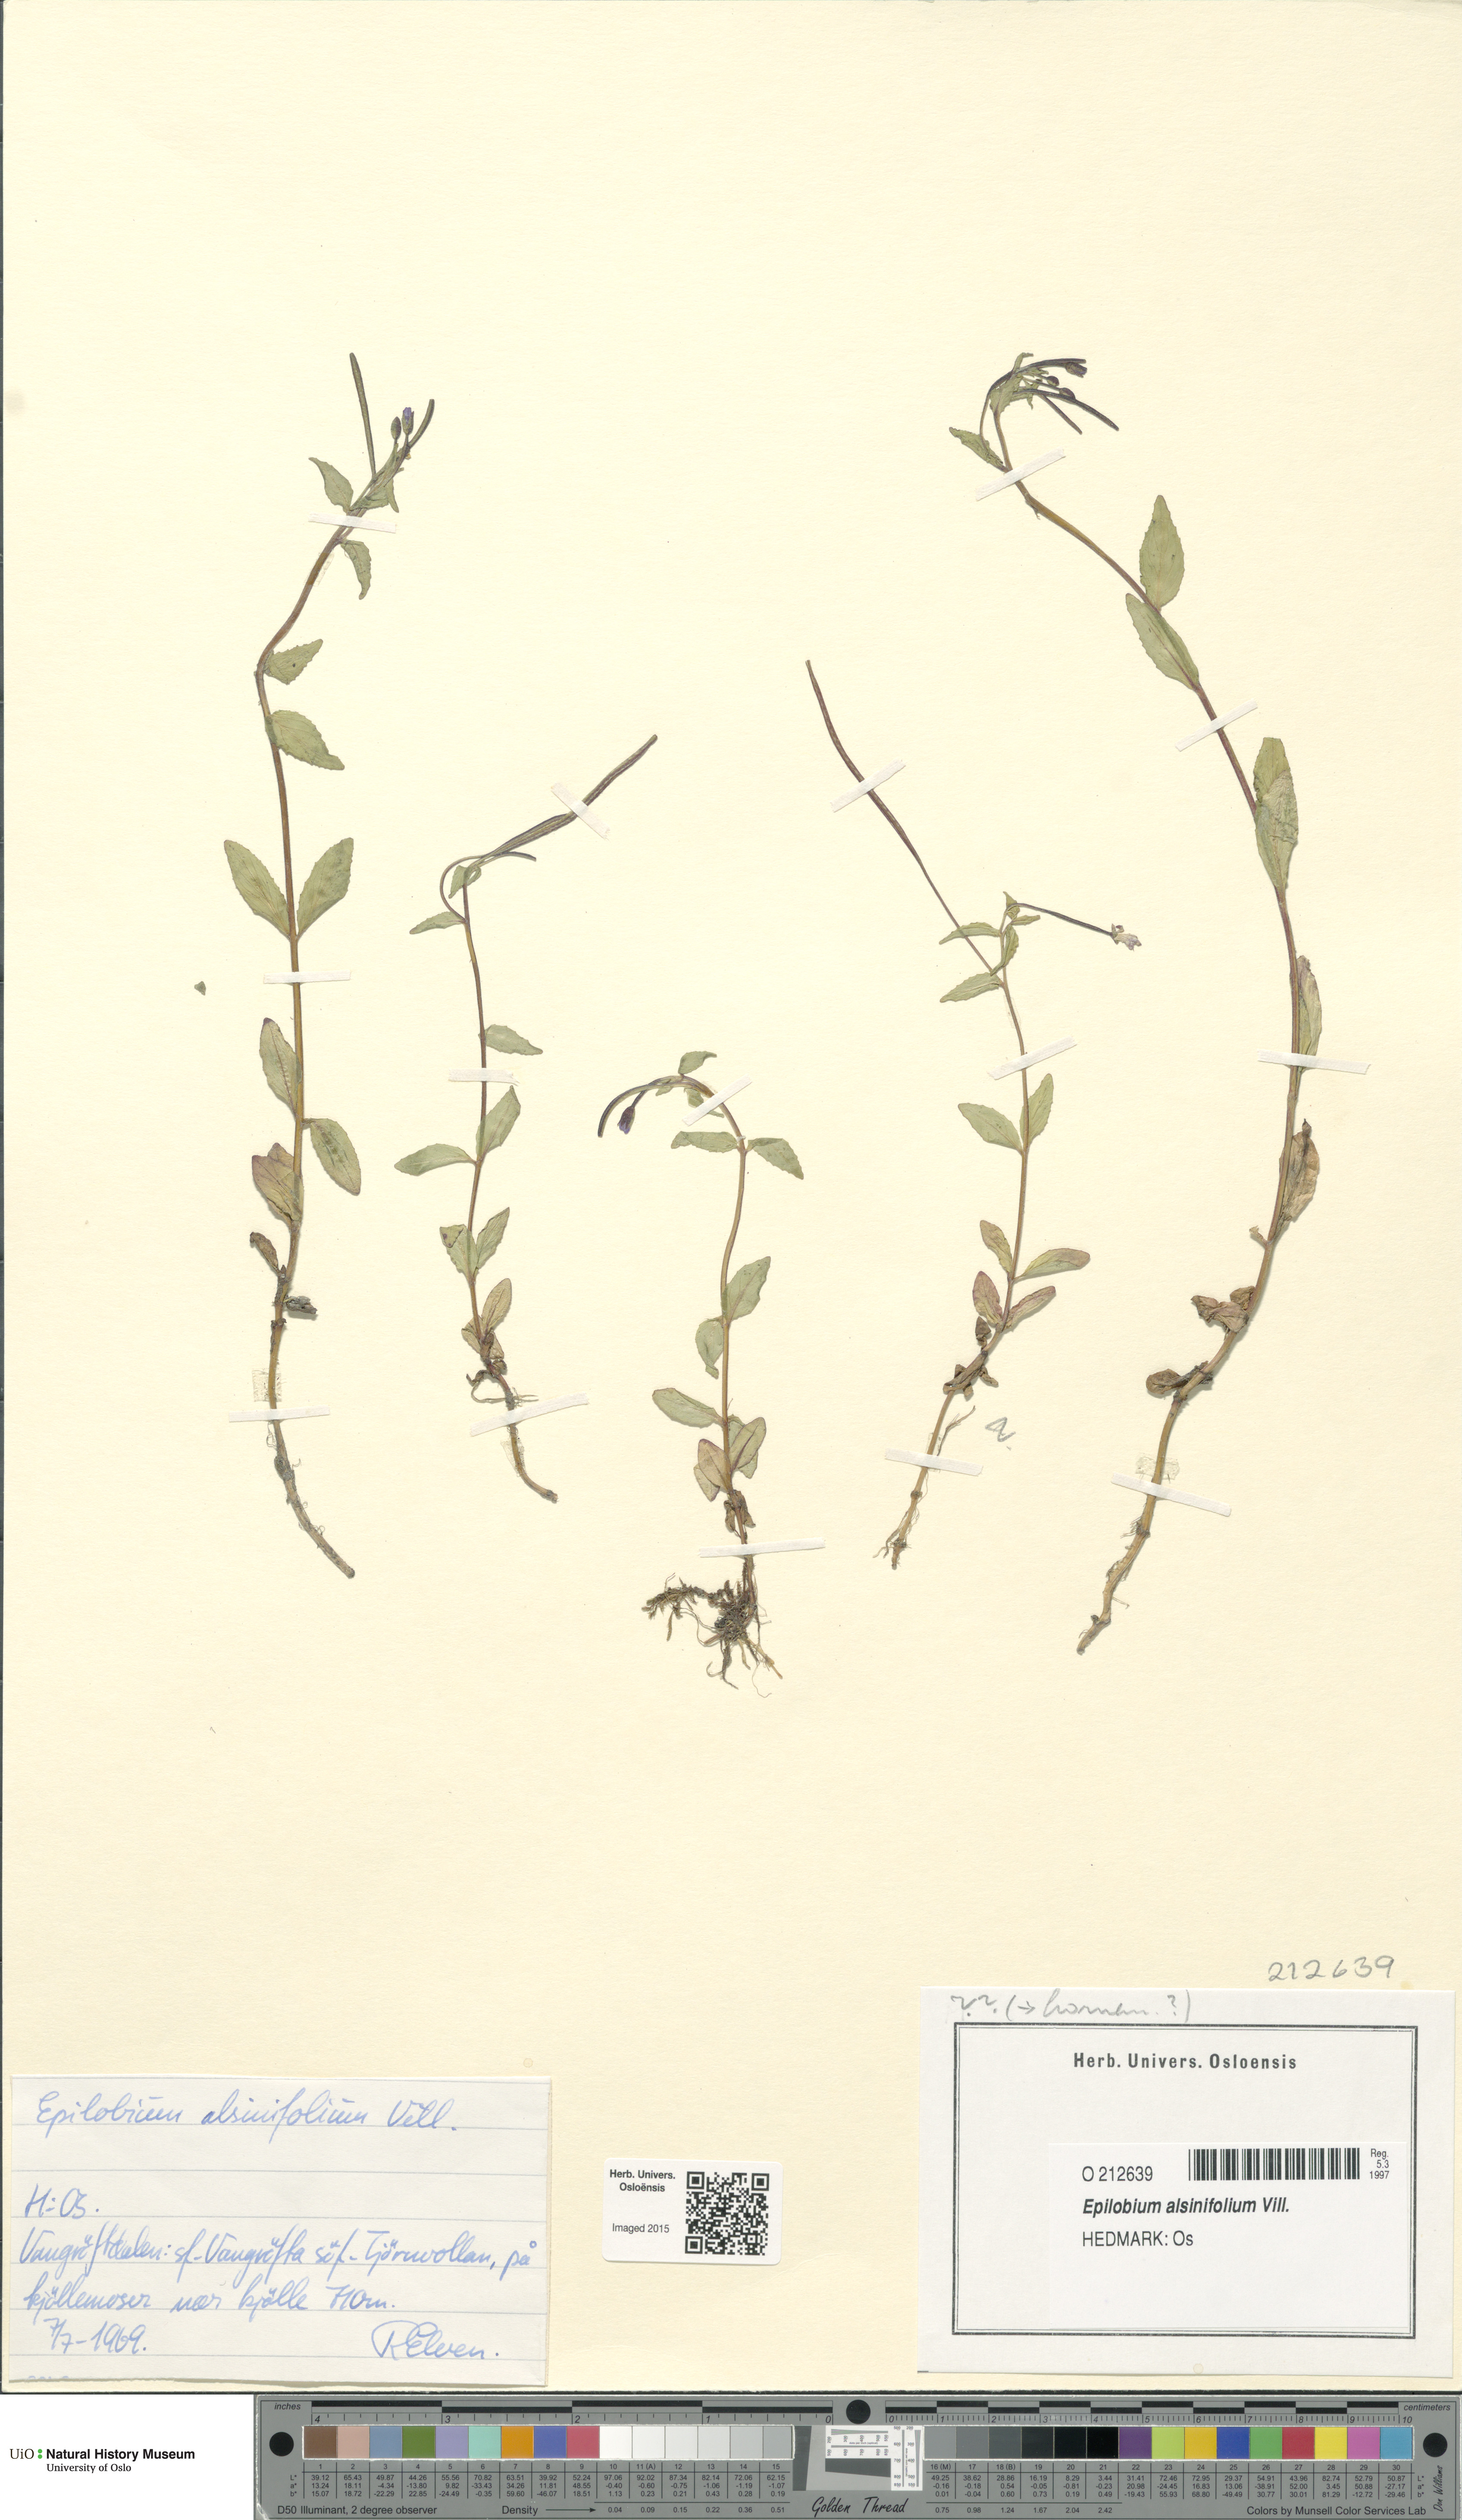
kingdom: Plantae
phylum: Tracheophyta
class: Magnoliopsida
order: Myrtales
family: Onagraceae
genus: Epilobium
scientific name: Epilobium alsinifolium
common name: Chickweed willowherb
